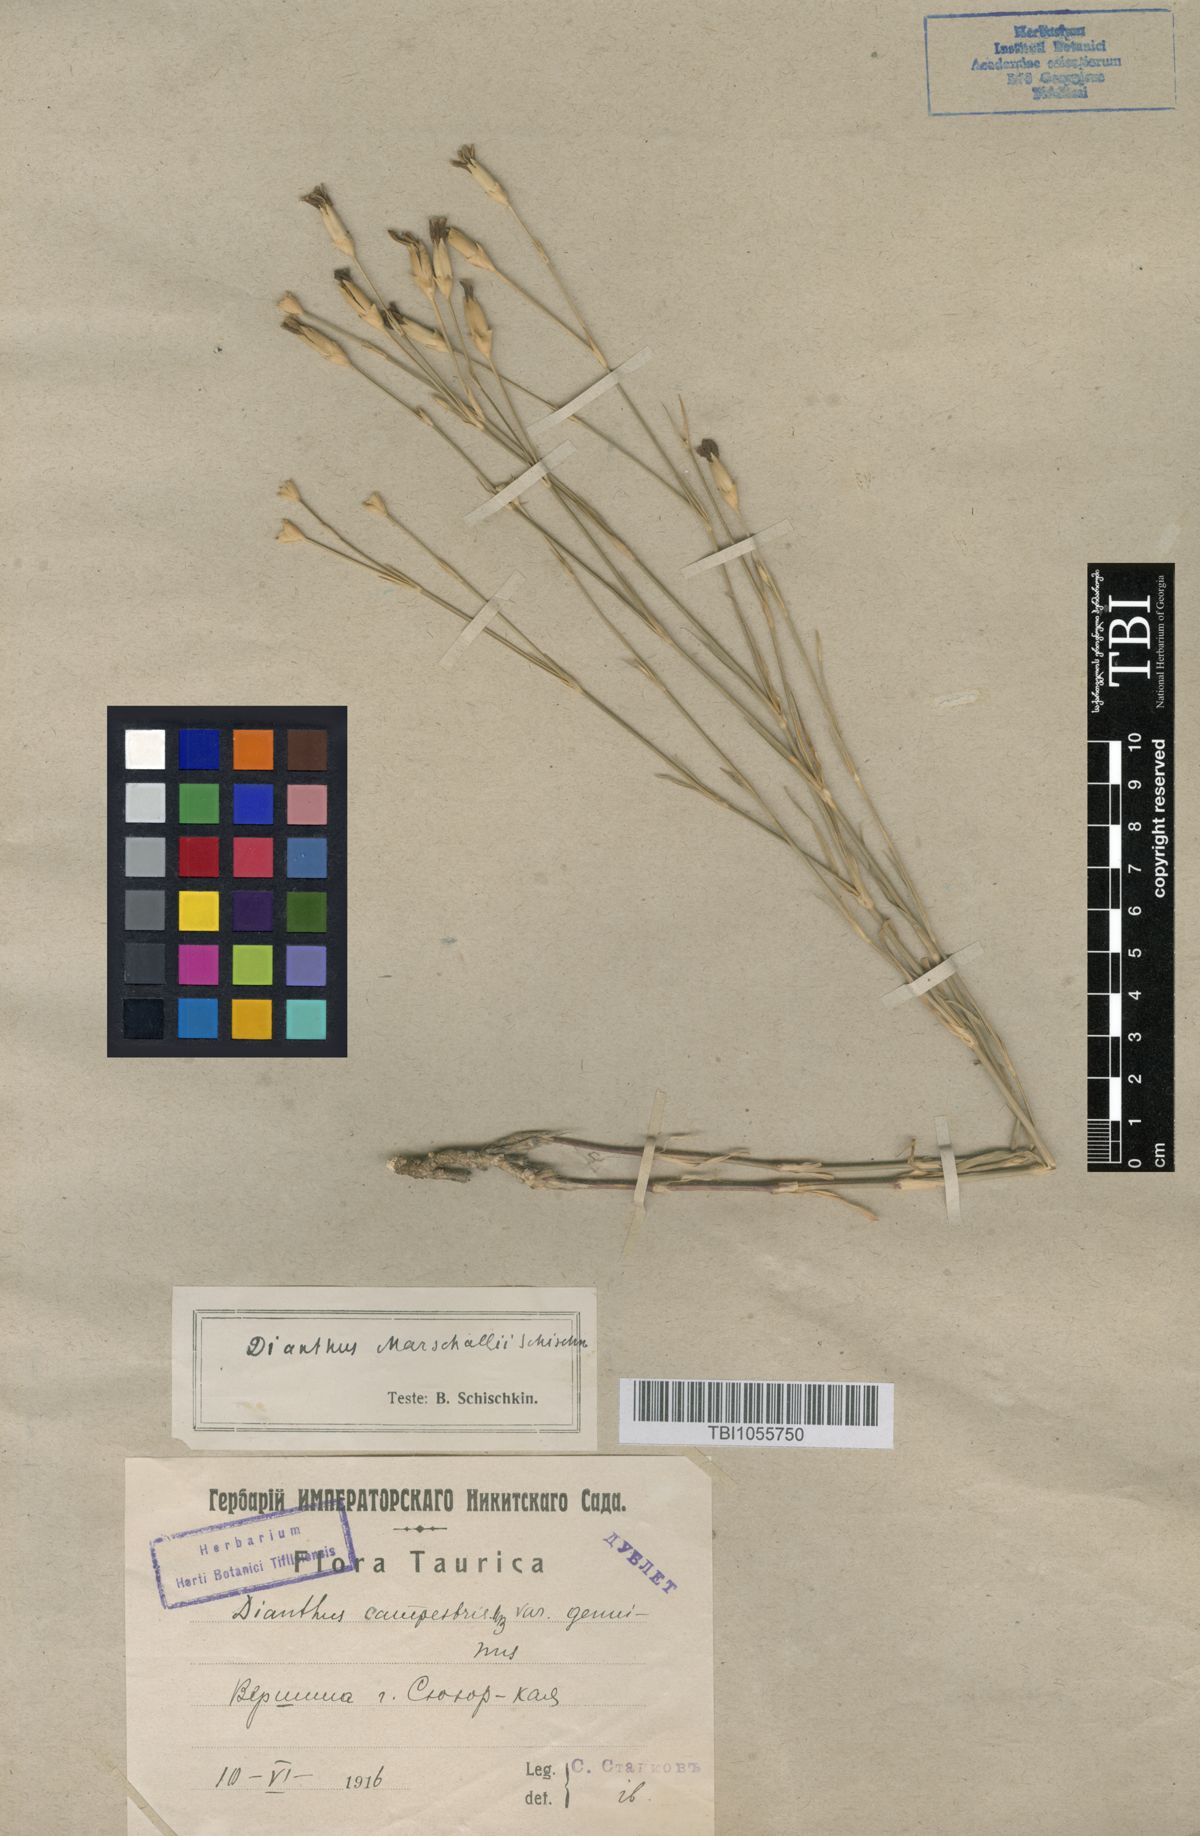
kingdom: Plantae
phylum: Tracheophyta
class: Magnoliopsida
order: Caryophyllales
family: Caryophyllaceae
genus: Dianthus
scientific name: Dianthus marschallii
